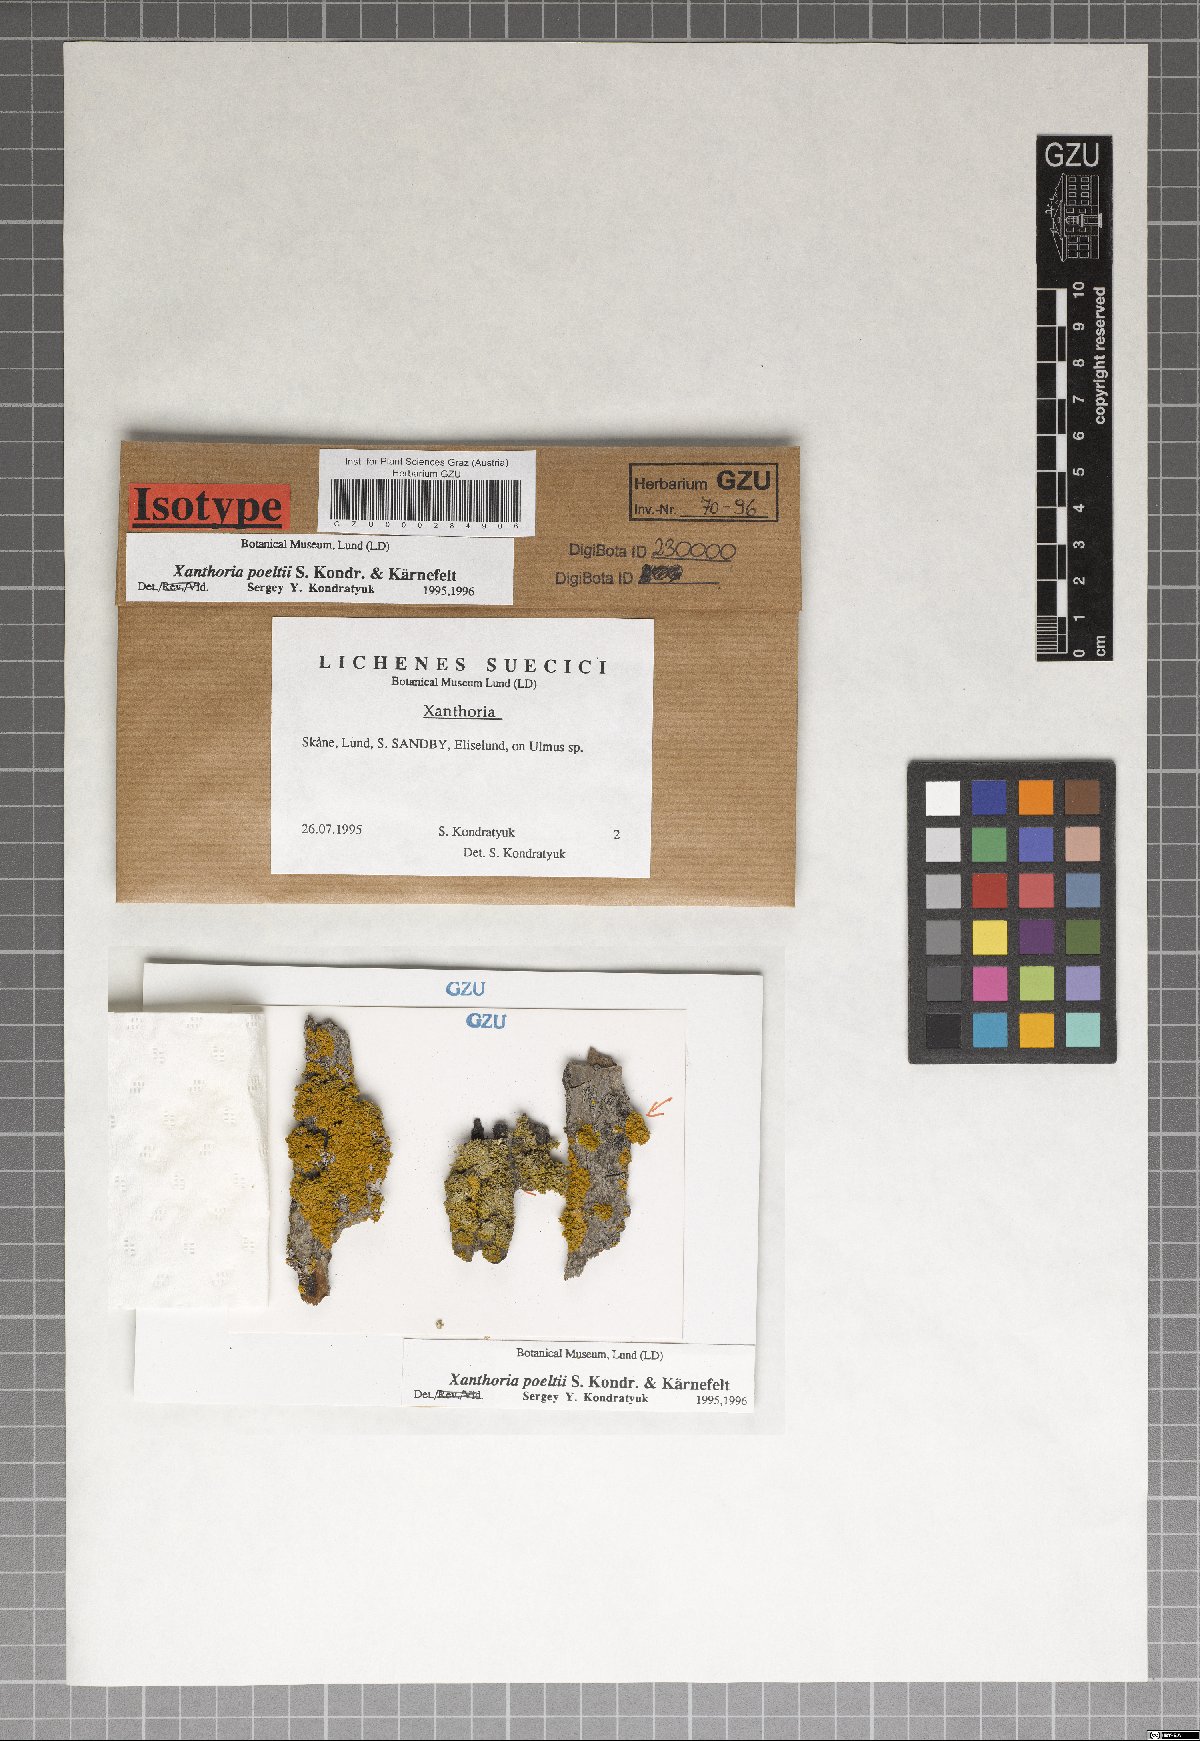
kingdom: Fungi
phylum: Ascomycota
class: Lecanoromycetes
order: Teloschistales
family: Teloschistaceae
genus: Gallowayella
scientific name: Gallowayella poeltii
